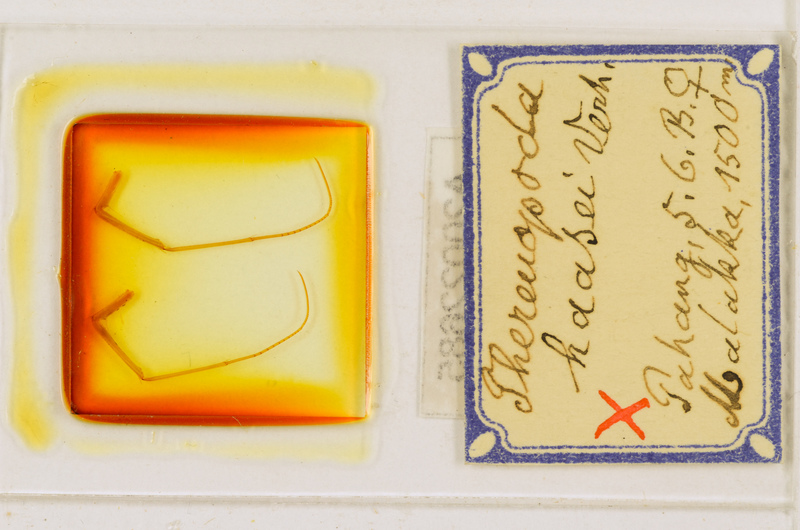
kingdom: Animalia
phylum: Arthropoda
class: Chilopoda
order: Scutigeromorpha
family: Scutigeridae
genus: Thereuopoda
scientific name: Thereuopoda longicornis
